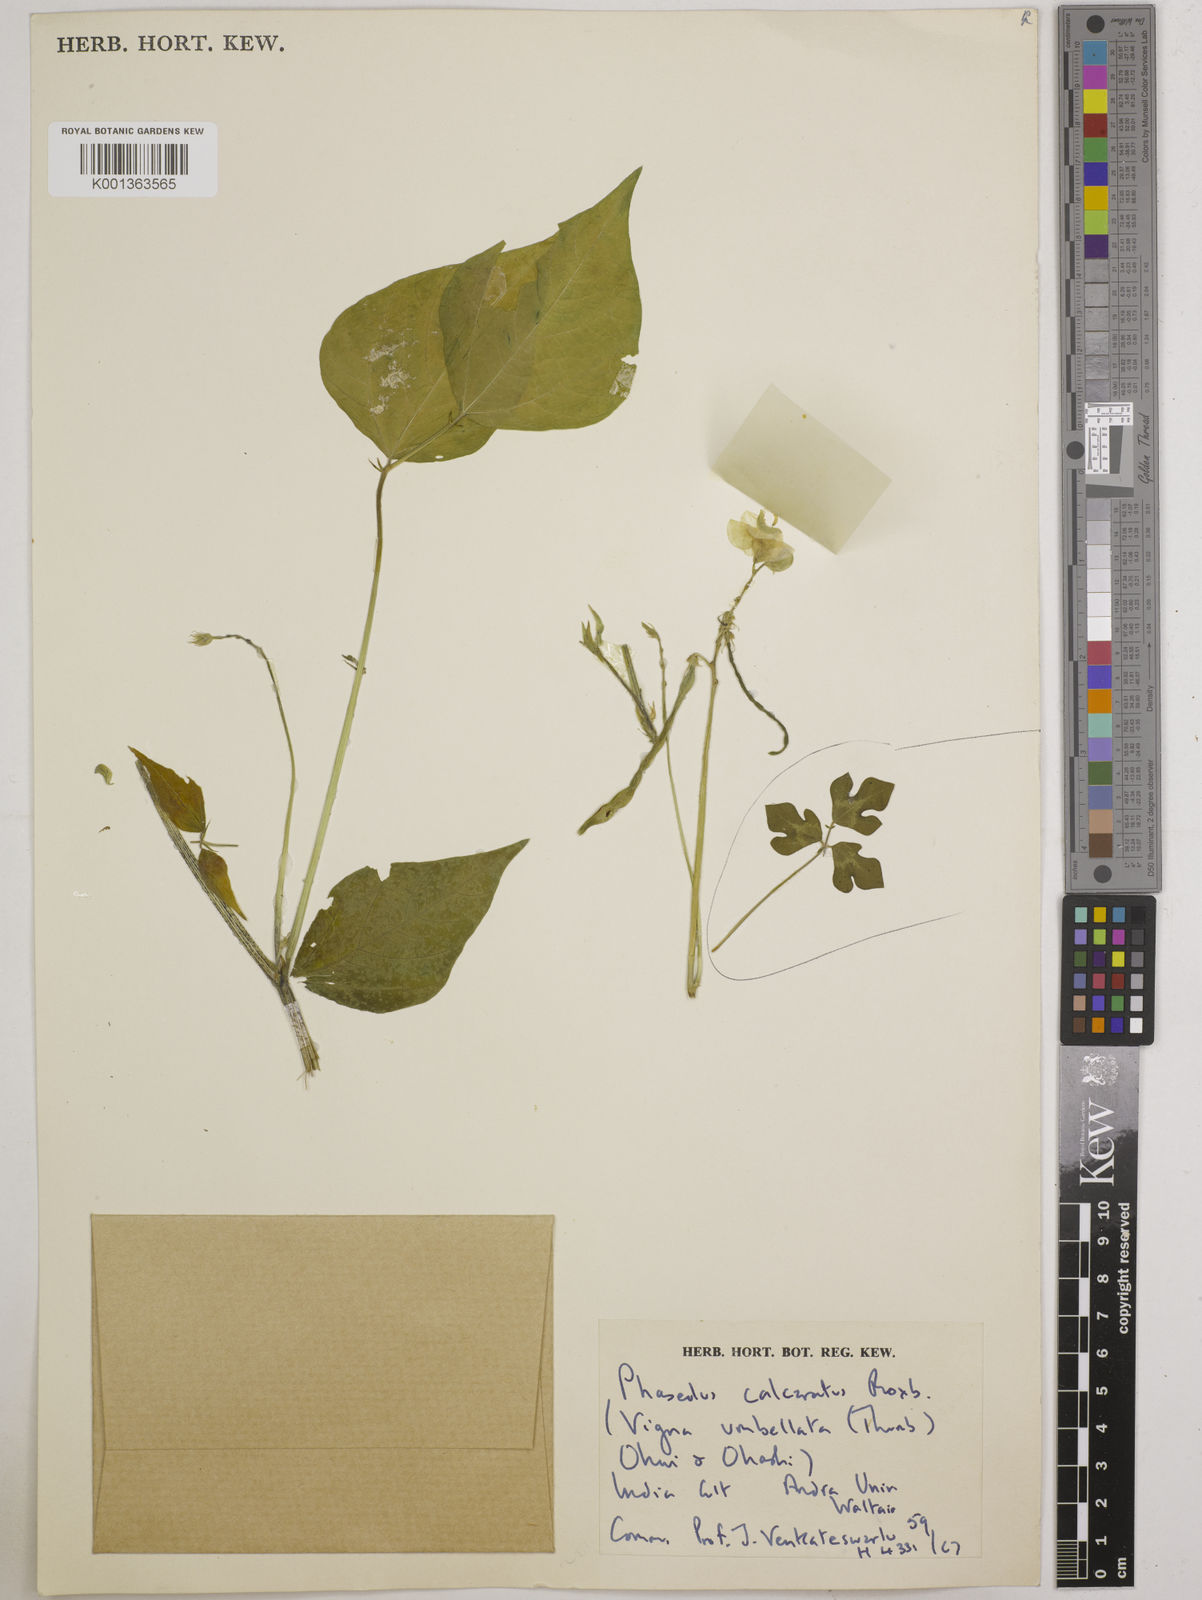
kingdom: Plantae
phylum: Tracheophyta
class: Magnoliopsida
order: Fabales
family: Fabaceae
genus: Vigna
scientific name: Vigna umbellata
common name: Oriental-bean
